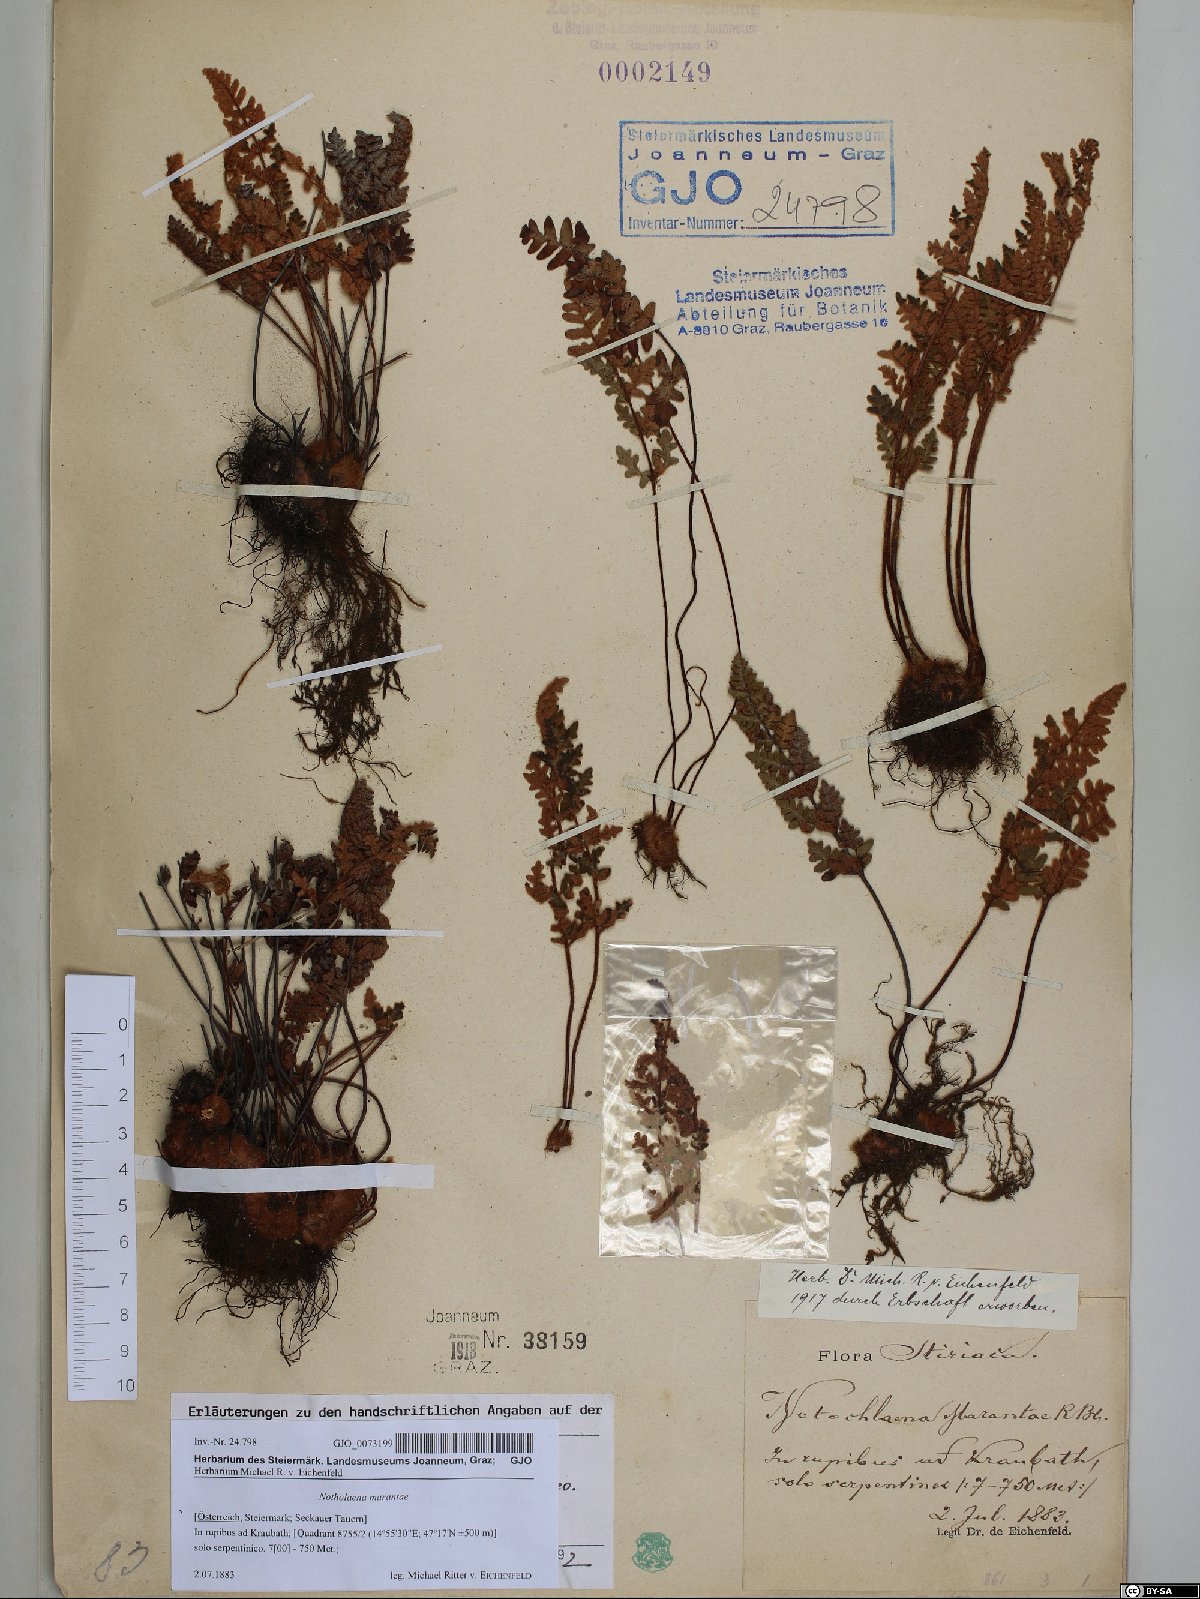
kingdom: Plantae
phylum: Tracheophyta
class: Polypodiopsida
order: Polypodiales
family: Pteridaceae
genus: Paragymnopteris
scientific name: Paragymnopteris marantae
